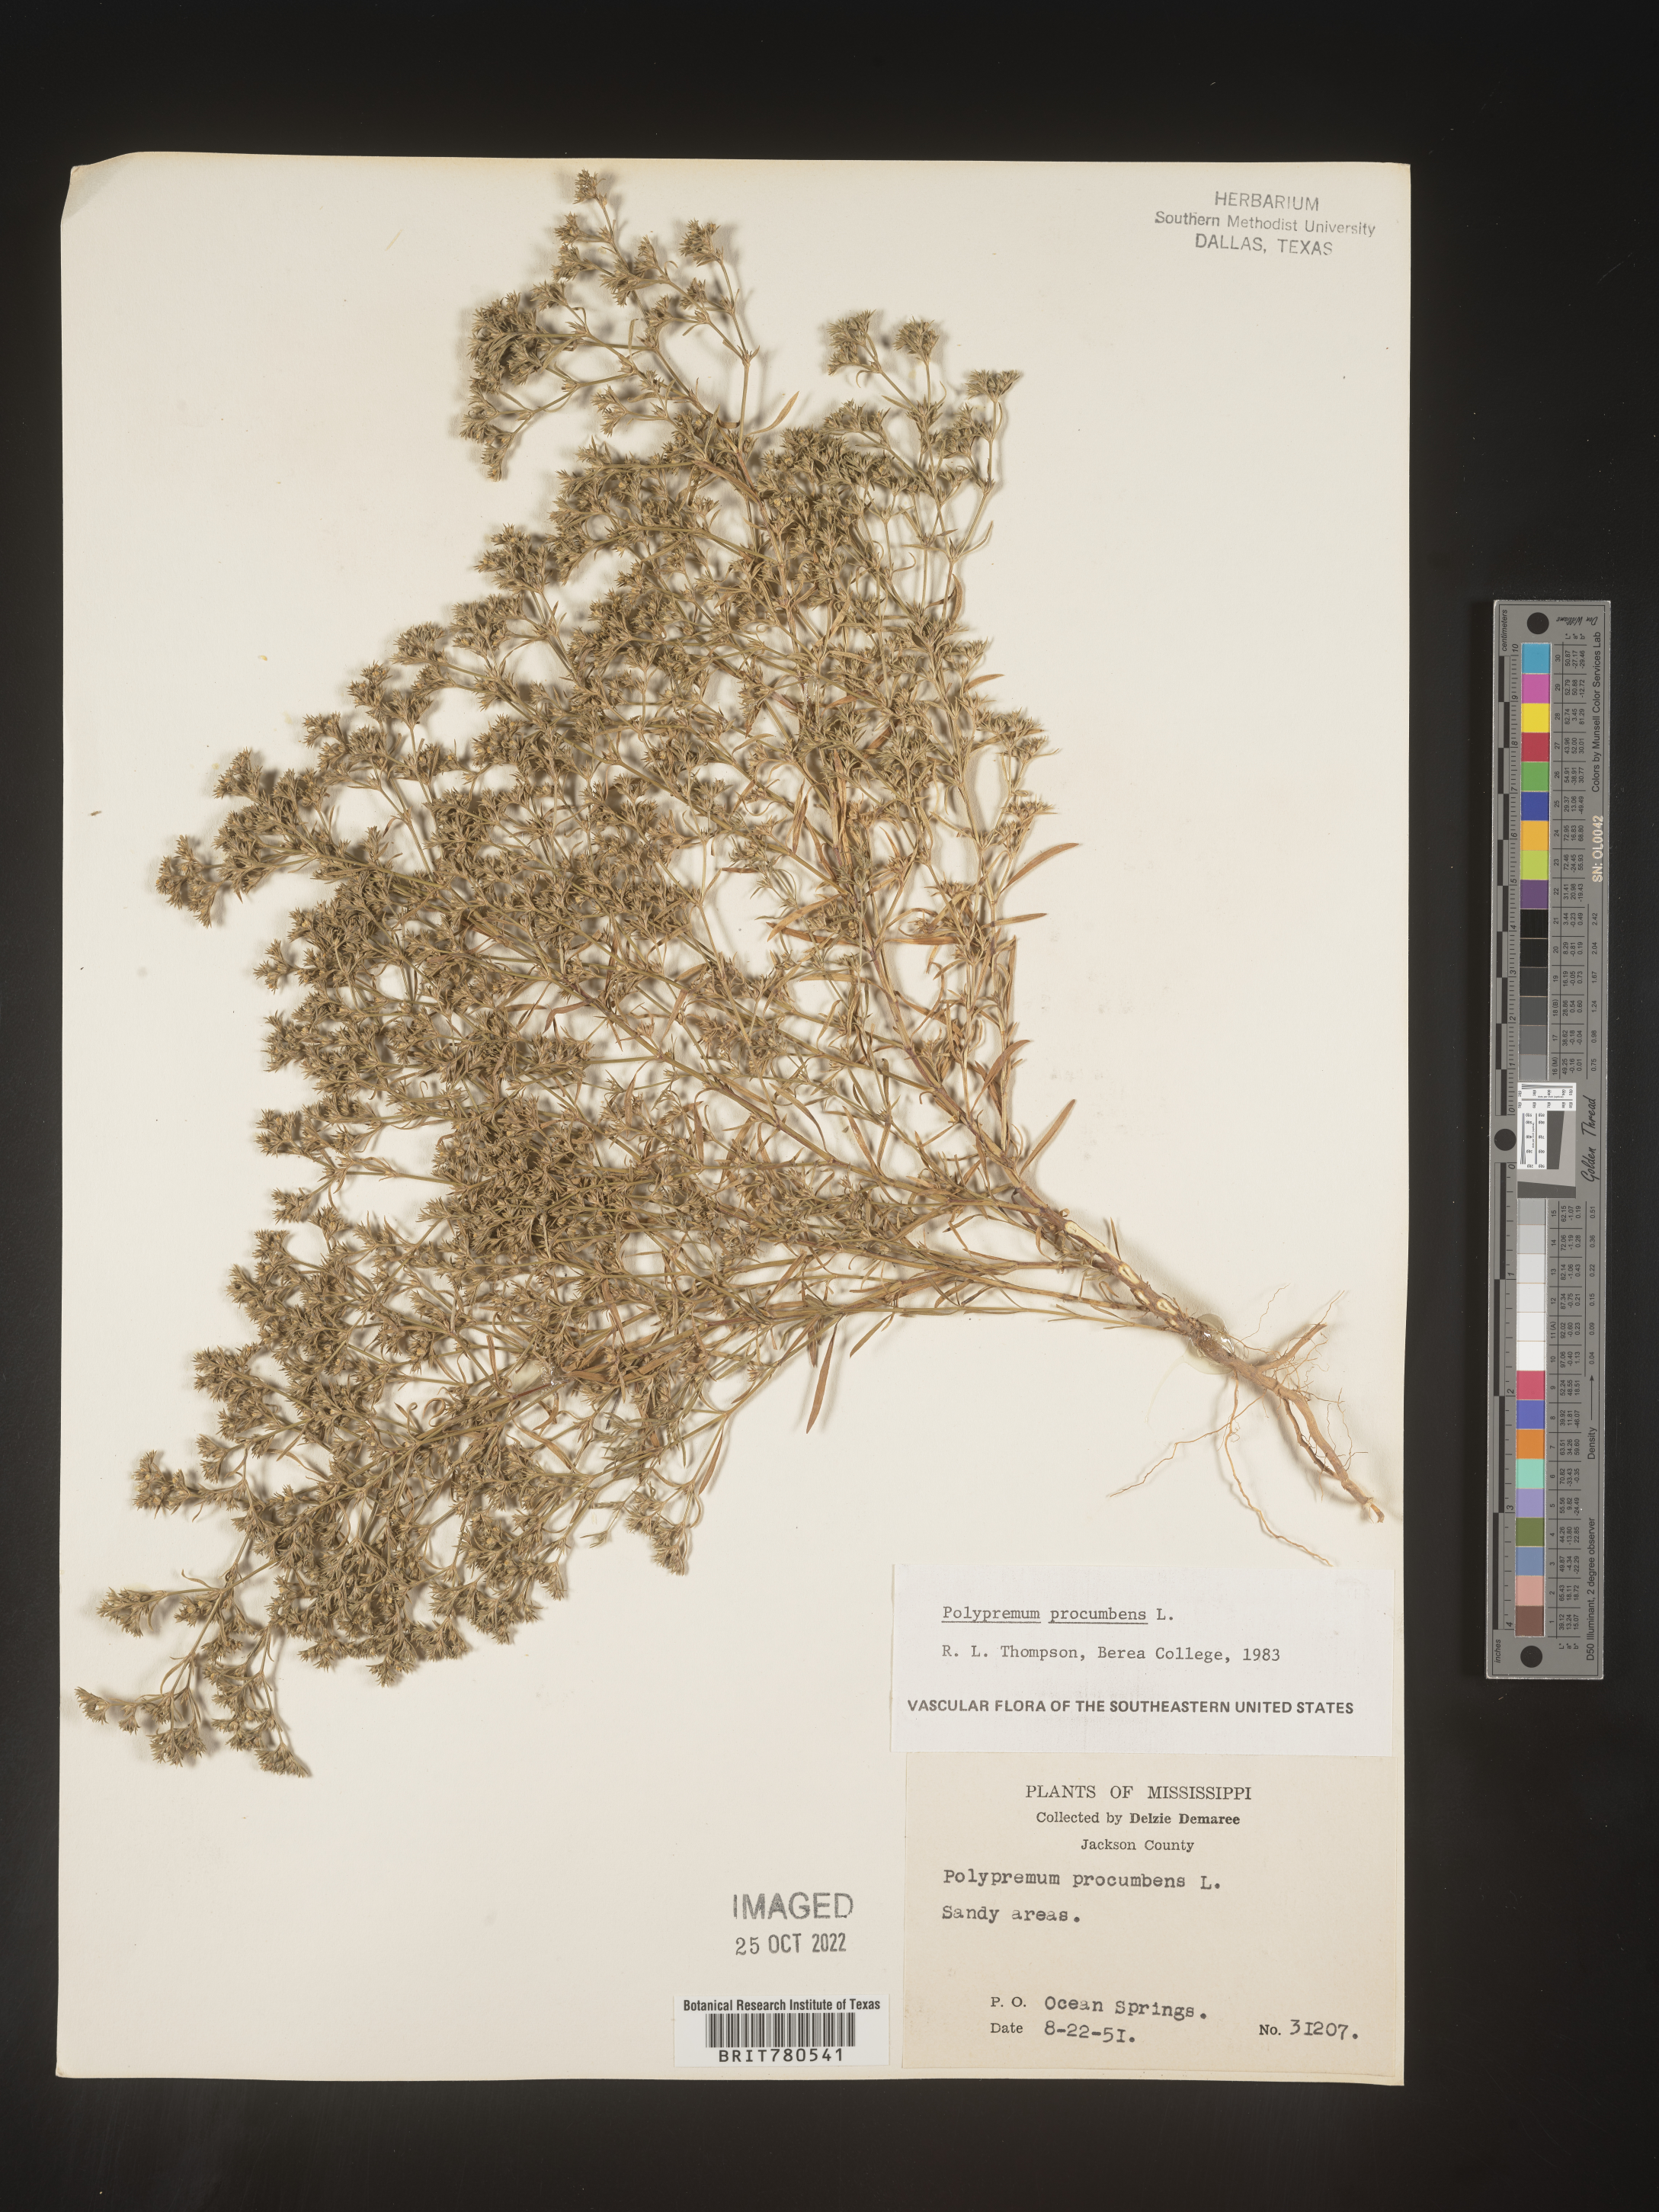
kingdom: Plantae
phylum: Tracheophyta
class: Magnoliopsida
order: Lamiales
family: Tetrachondraceae
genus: Polypremum
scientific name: Polypremum procumbens
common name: Juniper-leaf
